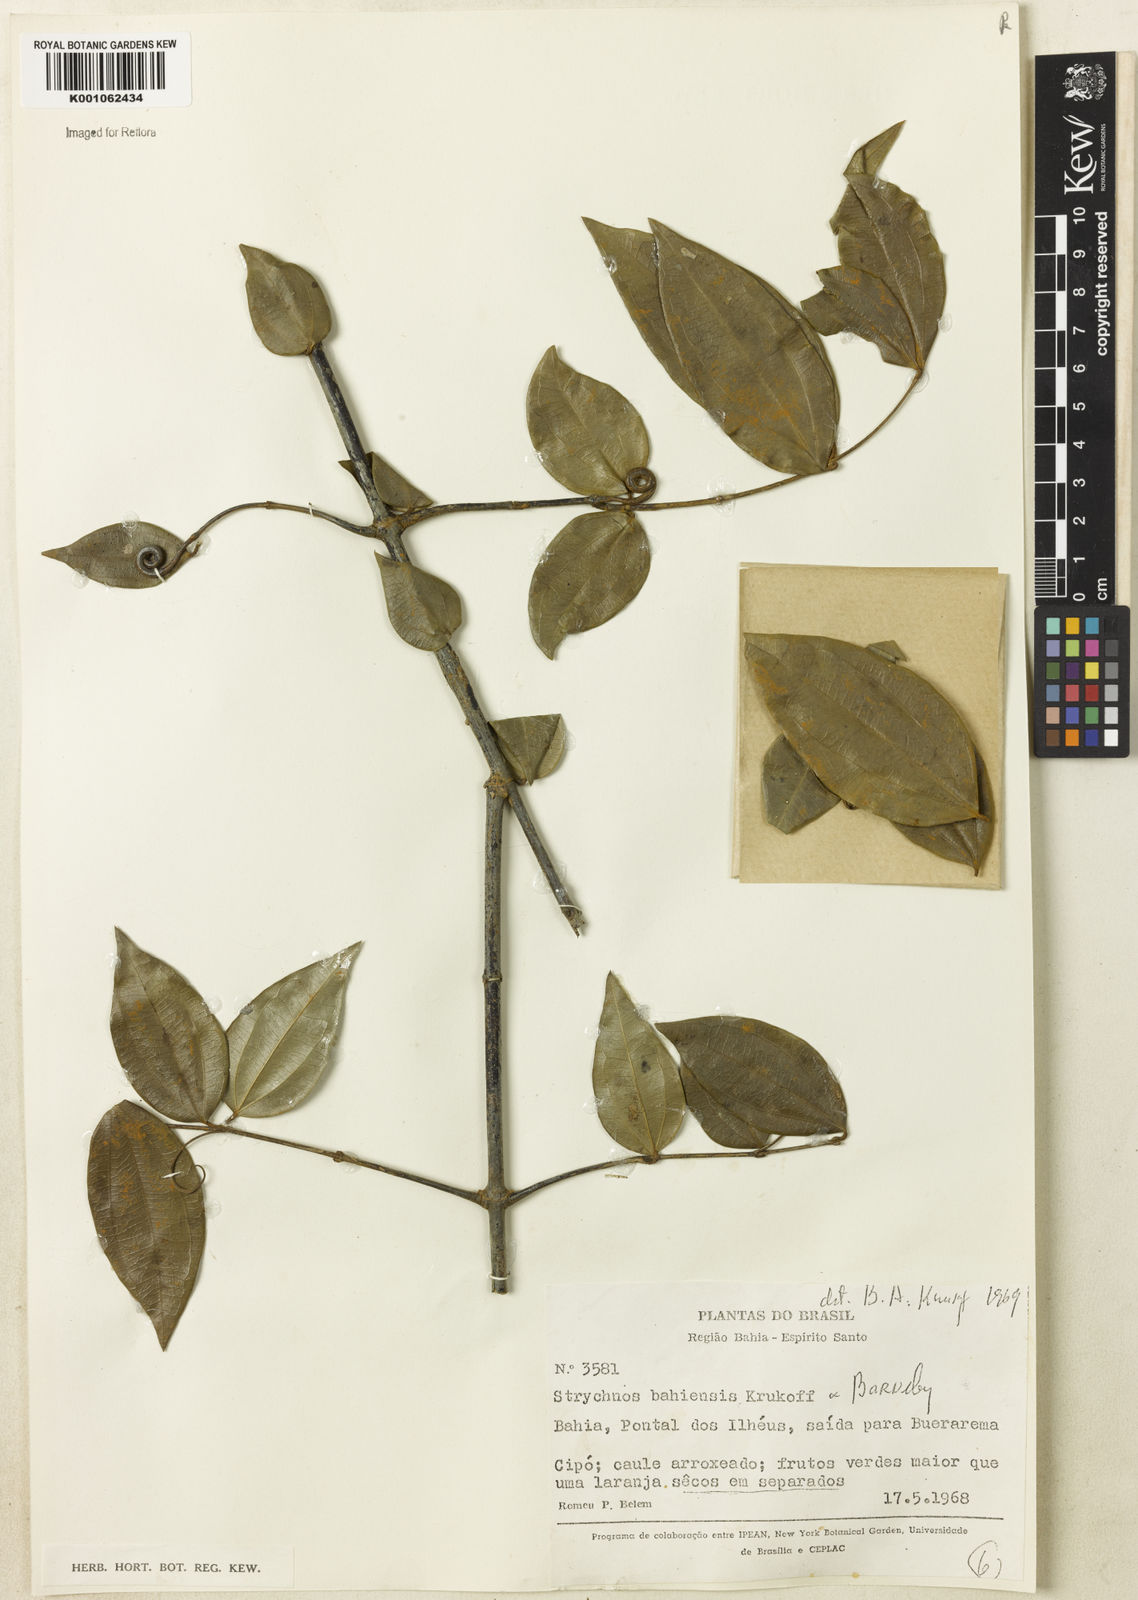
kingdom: Plantae
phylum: Tracheophyta
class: Magnoliopsida
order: Gentianales
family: Loganiaceae
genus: Strychnos
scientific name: Strychnos
